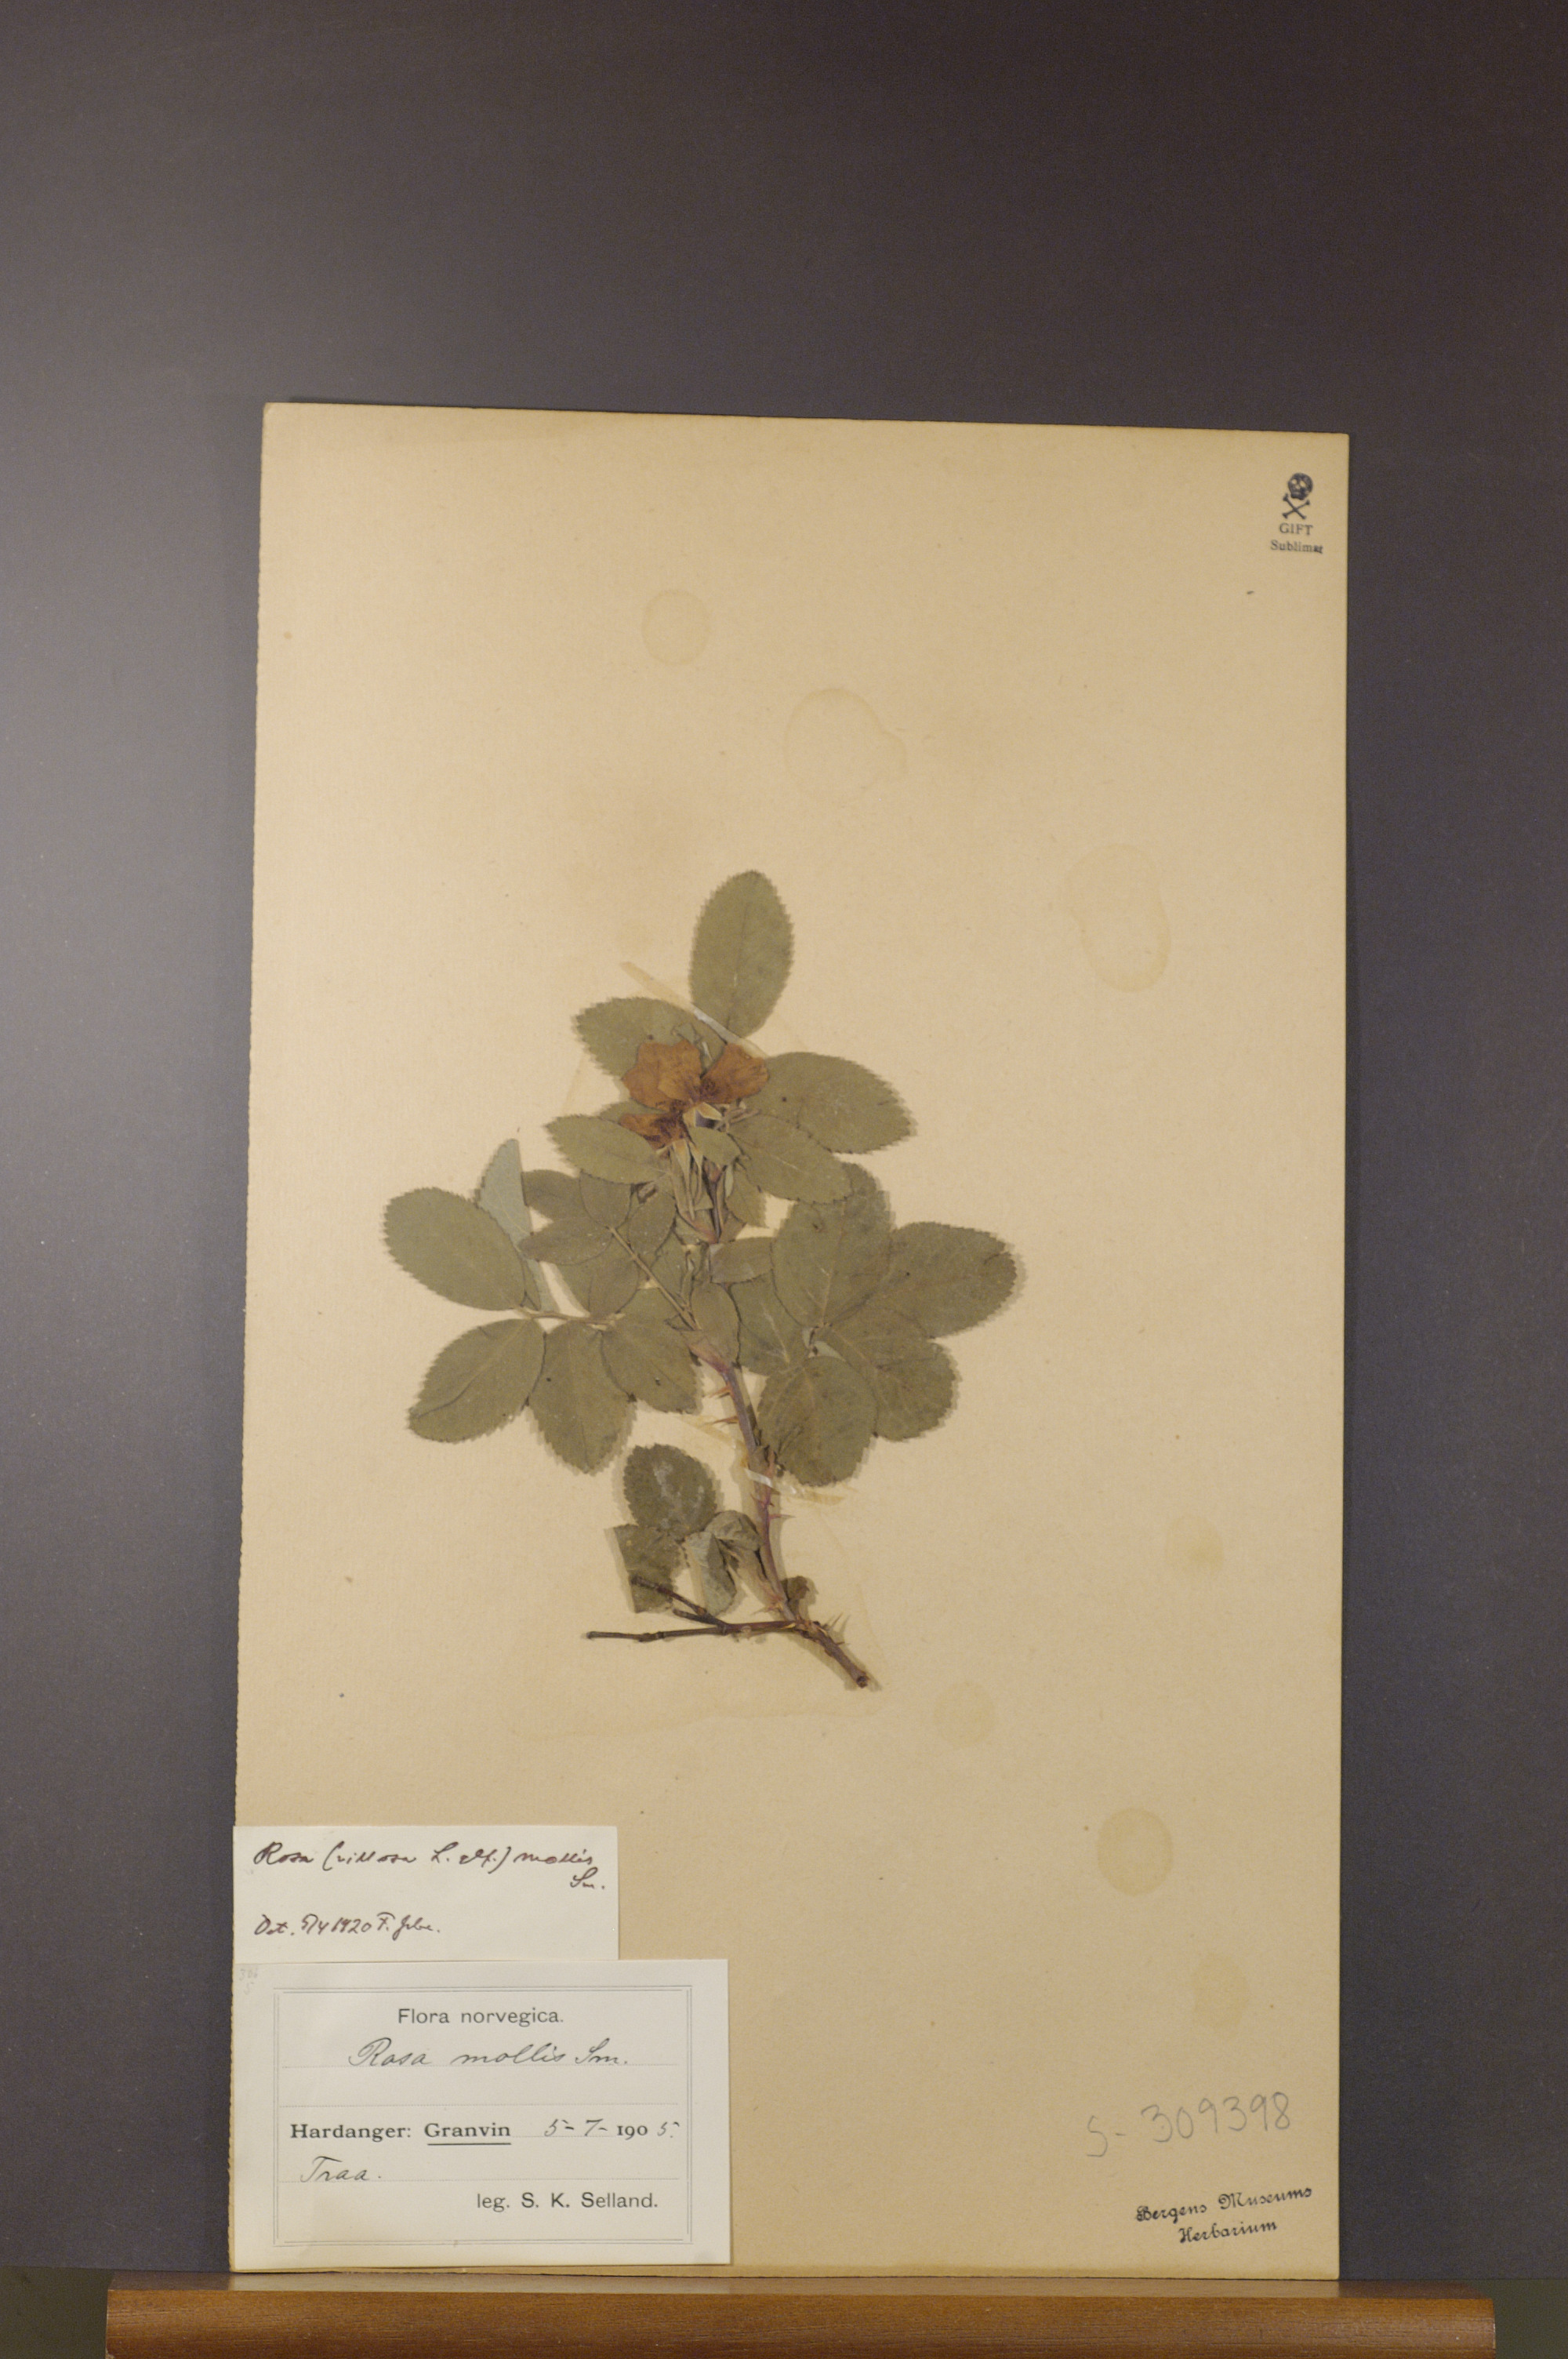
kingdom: Plantae
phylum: Tracheophyta
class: Magnoliopsida
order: Rosales
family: Rosaceae
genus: Rosa
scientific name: Rosa mollis
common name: Rose
